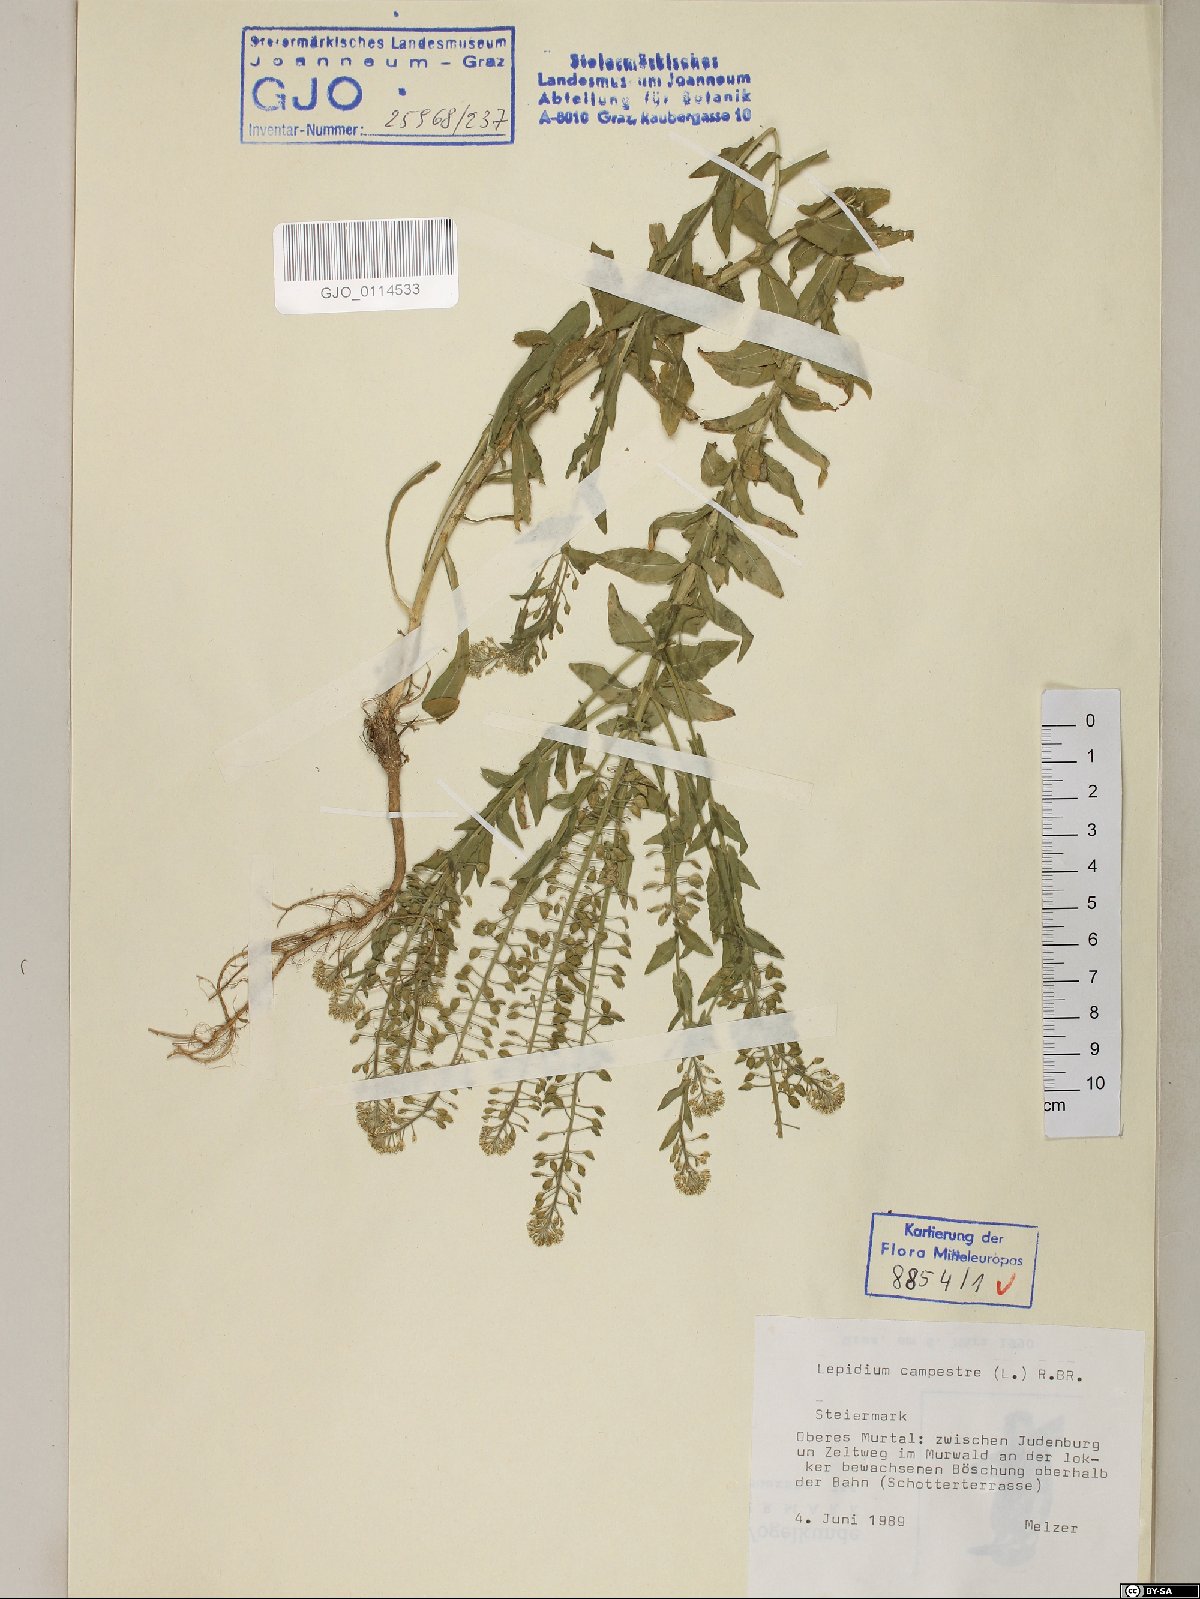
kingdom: Plantae
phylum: Tracheophyta
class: Magnoliopsida
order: Brassicales
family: Brassicaceae
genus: Lepidium
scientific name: Lepidium campestre
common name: Field pepperwort
